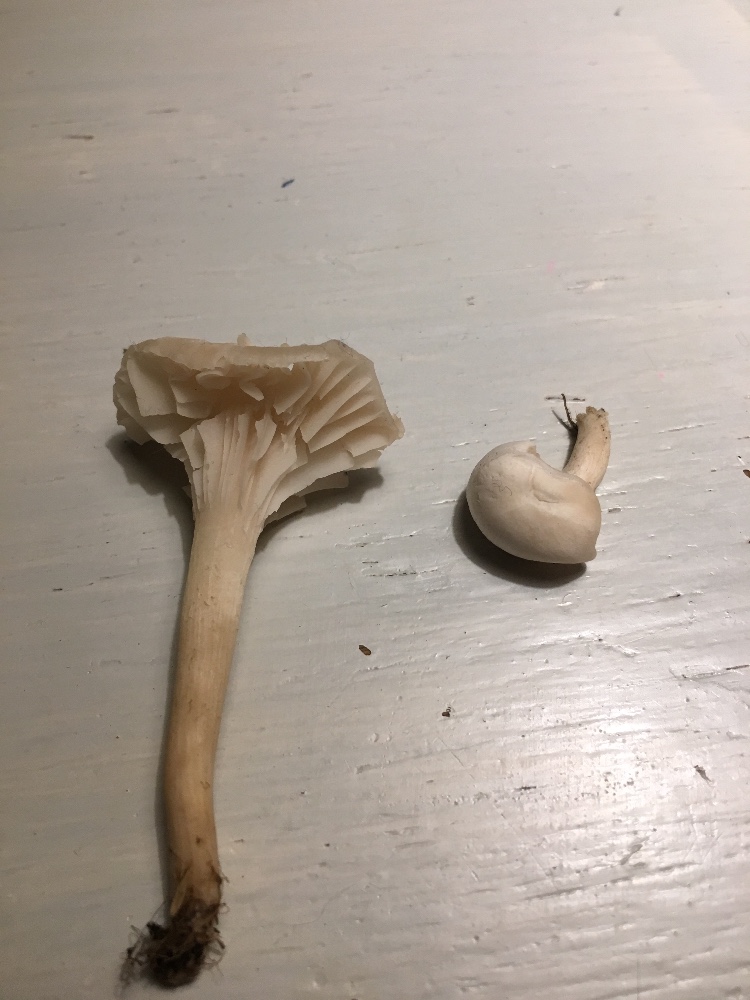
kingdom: Fungi
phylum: Basidiomycota
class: Agaricomycetes
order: Agaricales
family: Hygrophoraceae
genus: Cuphophyllus
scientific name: Cuphophyllus virgineus
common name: snehvid vokshat
